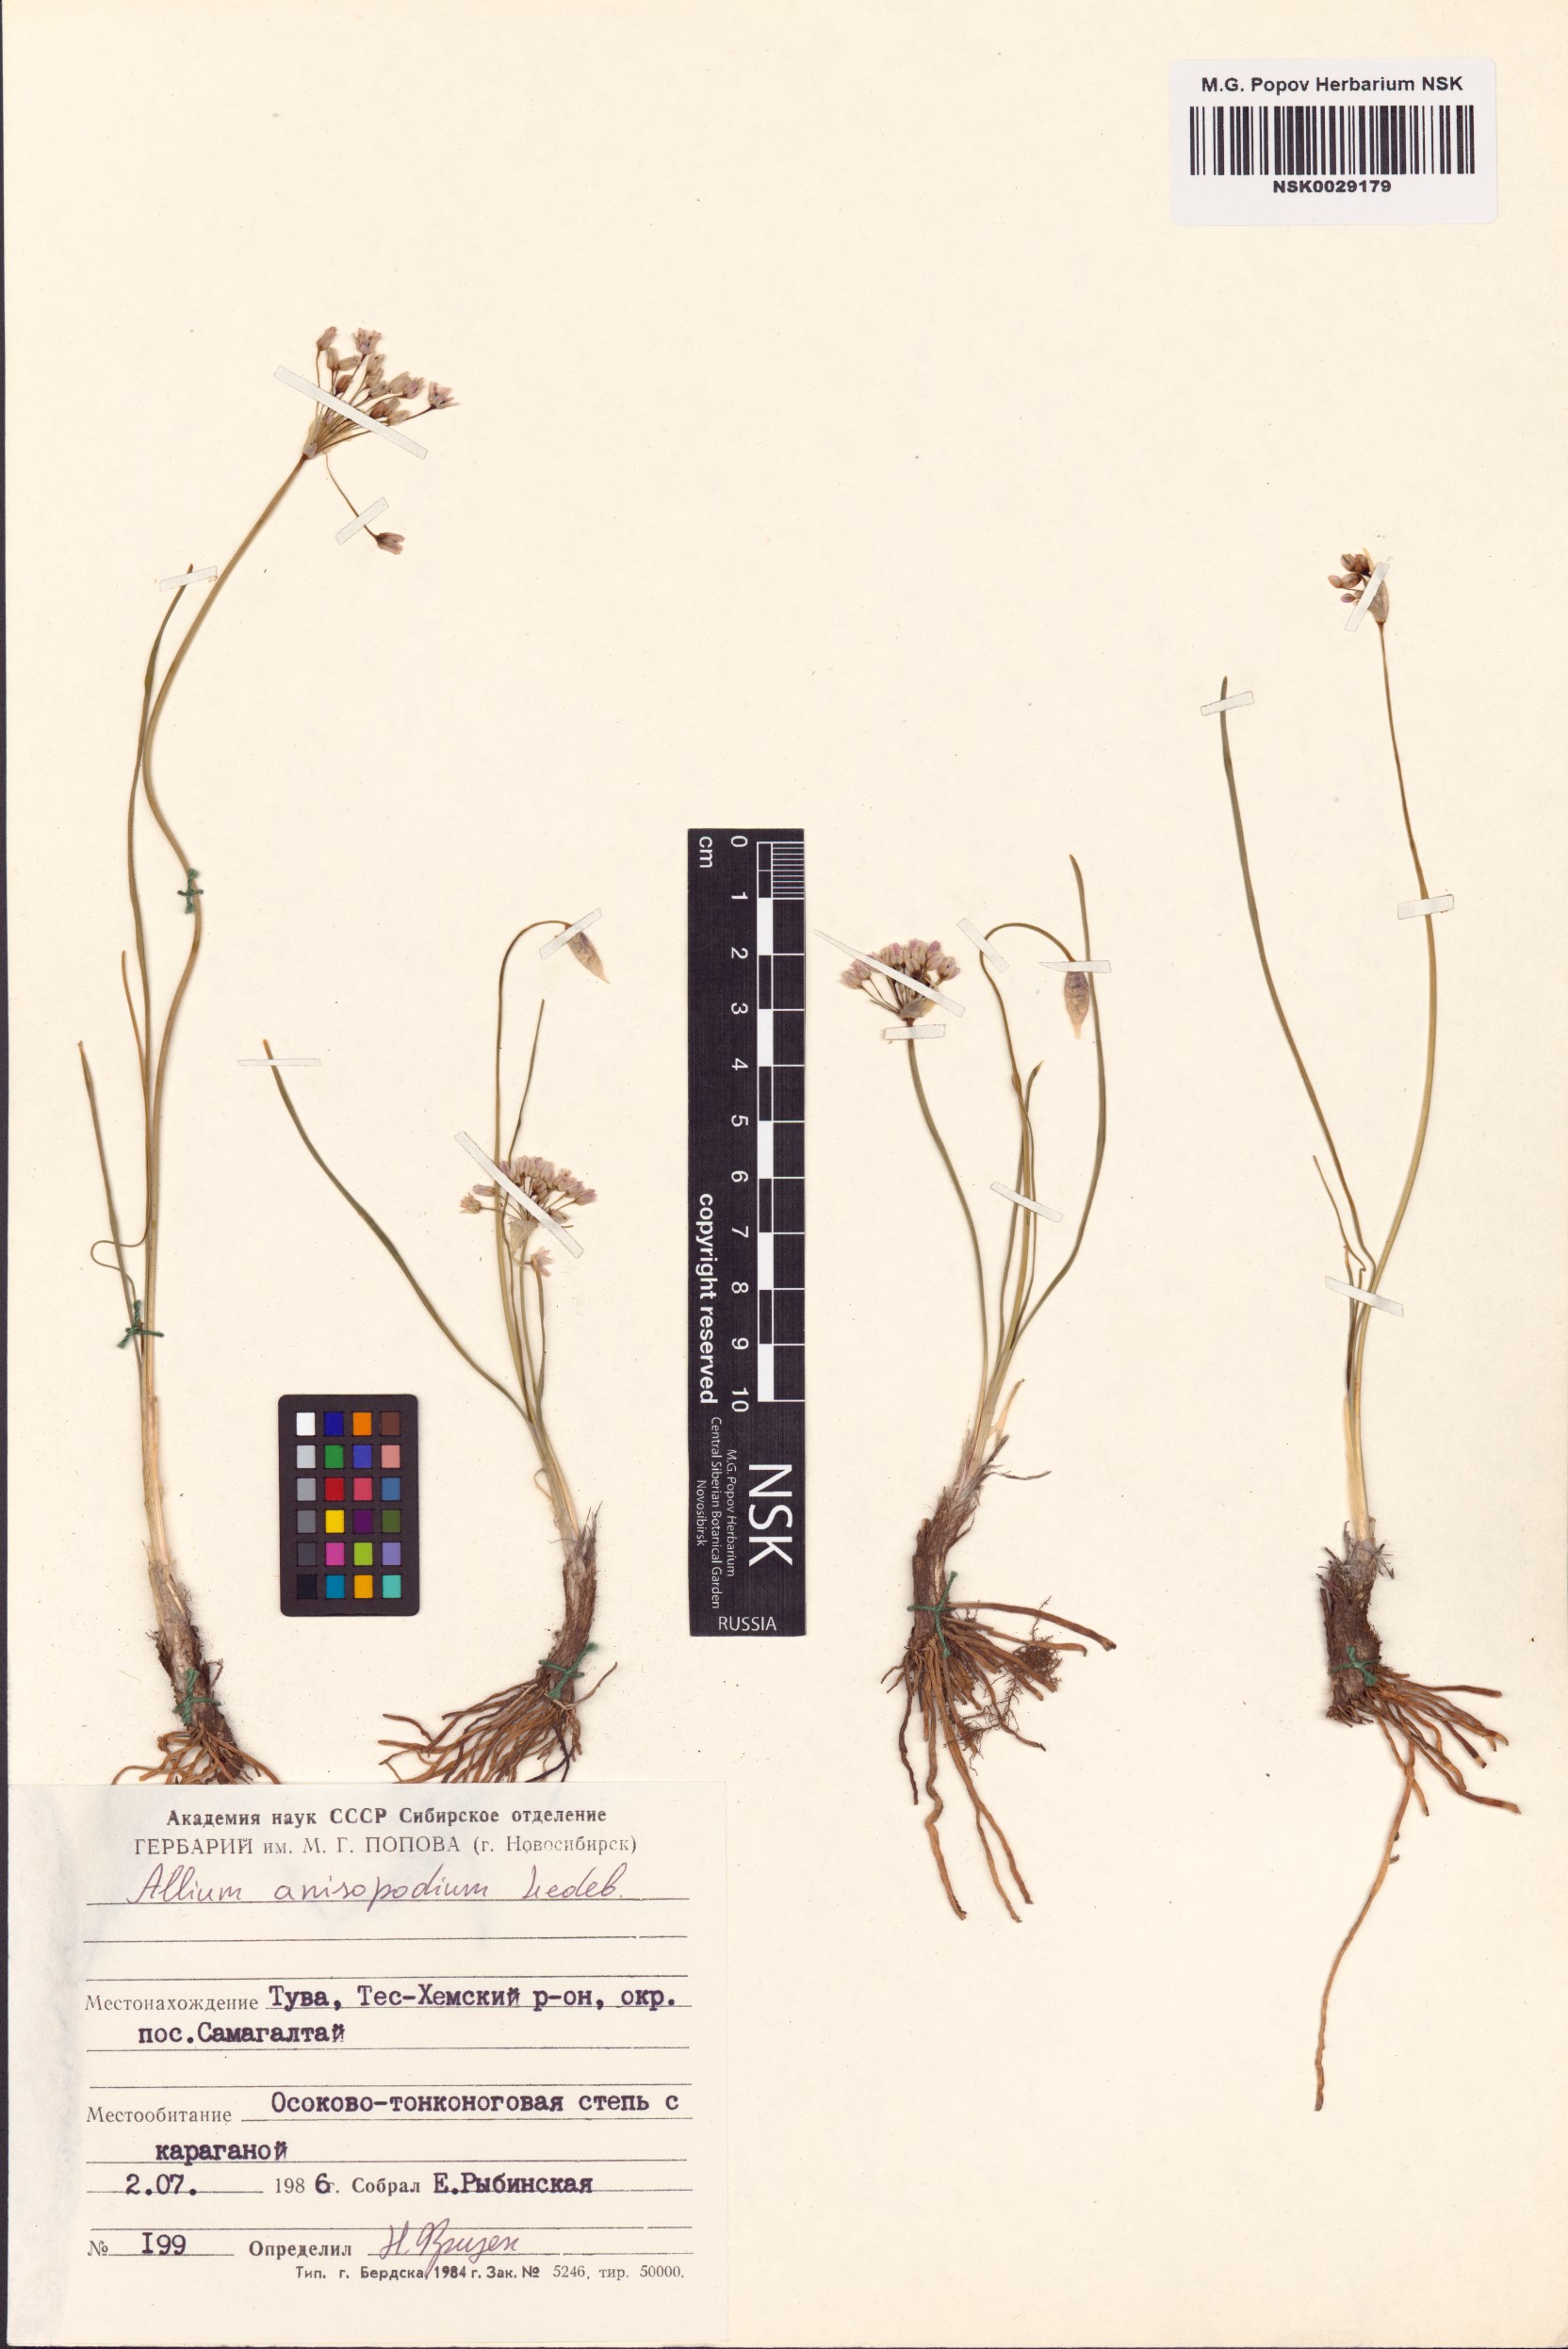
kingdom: Plantae
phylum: Tracheophyta
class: Liliopsida
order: Asparagales
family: Amaryllidaceae
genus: Allium
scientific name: Allium anisopodium
